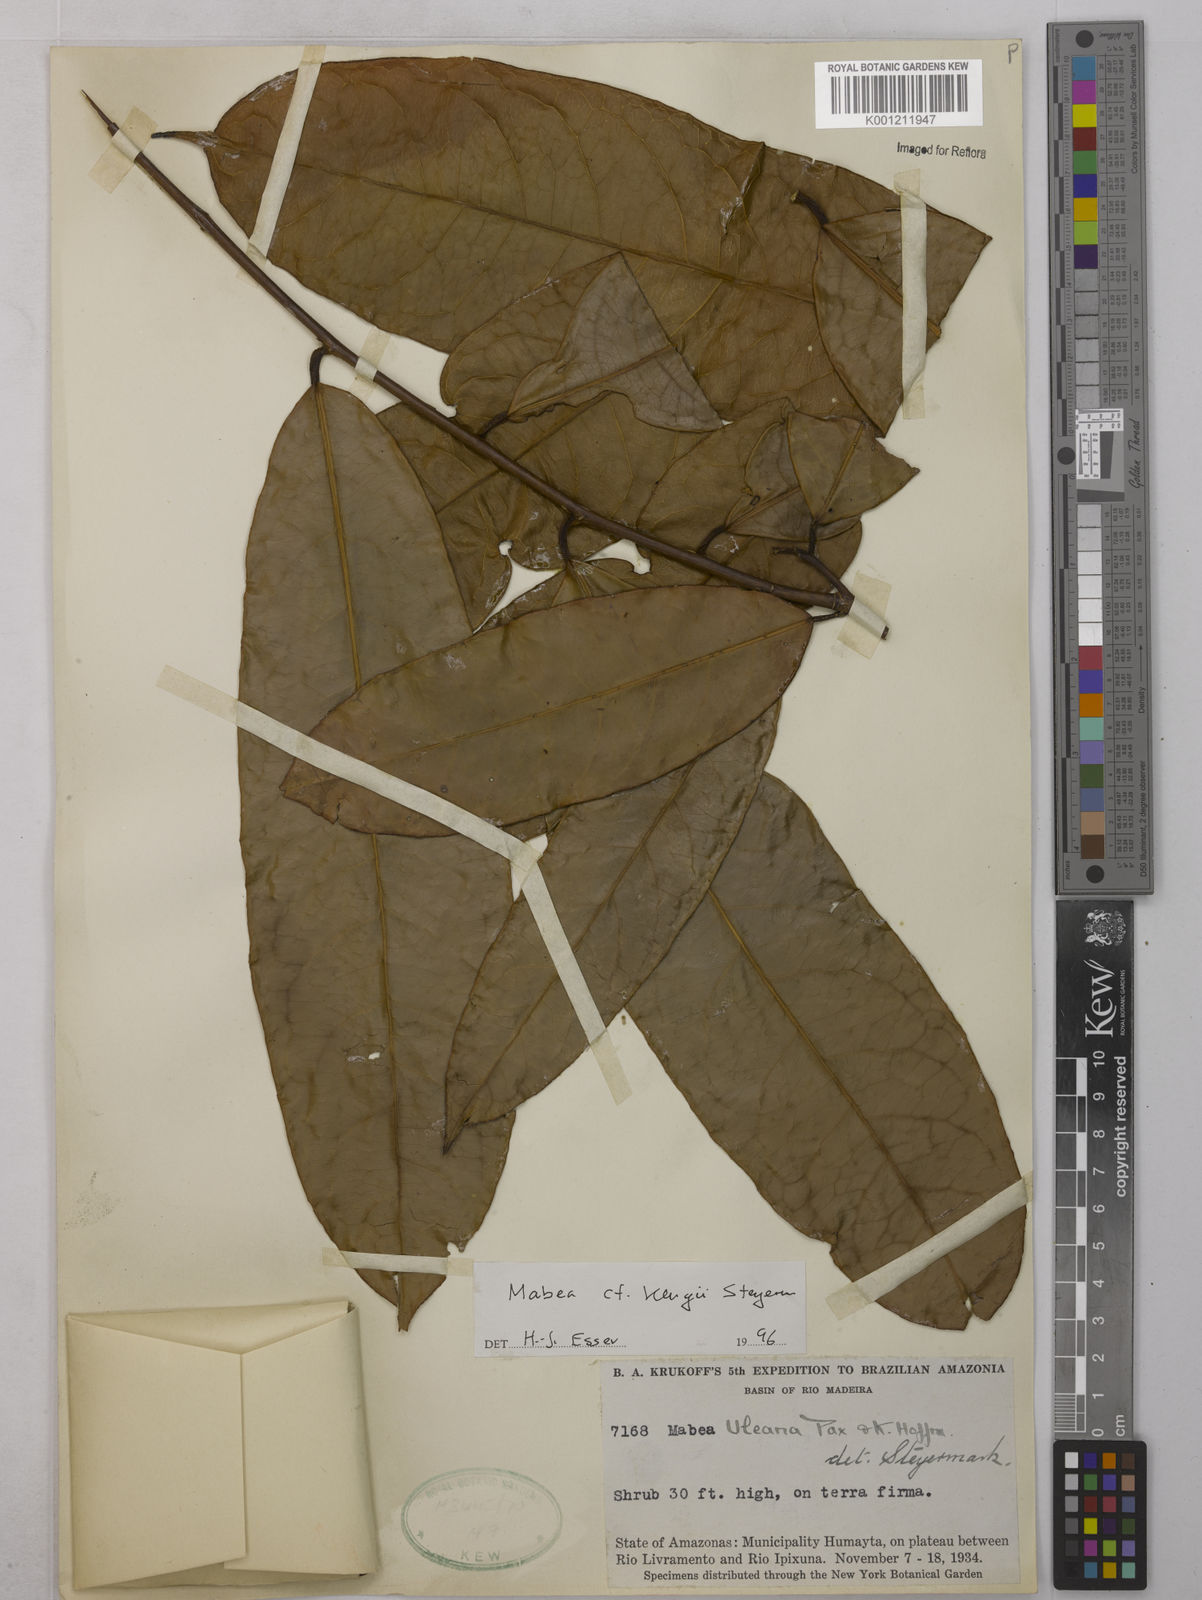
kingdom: Plantae
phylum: Tracheophyta
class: Magnoliopsida
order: Malpighiales
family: Euphorbiaceae
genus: Mabea
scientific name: Mabea klugii
